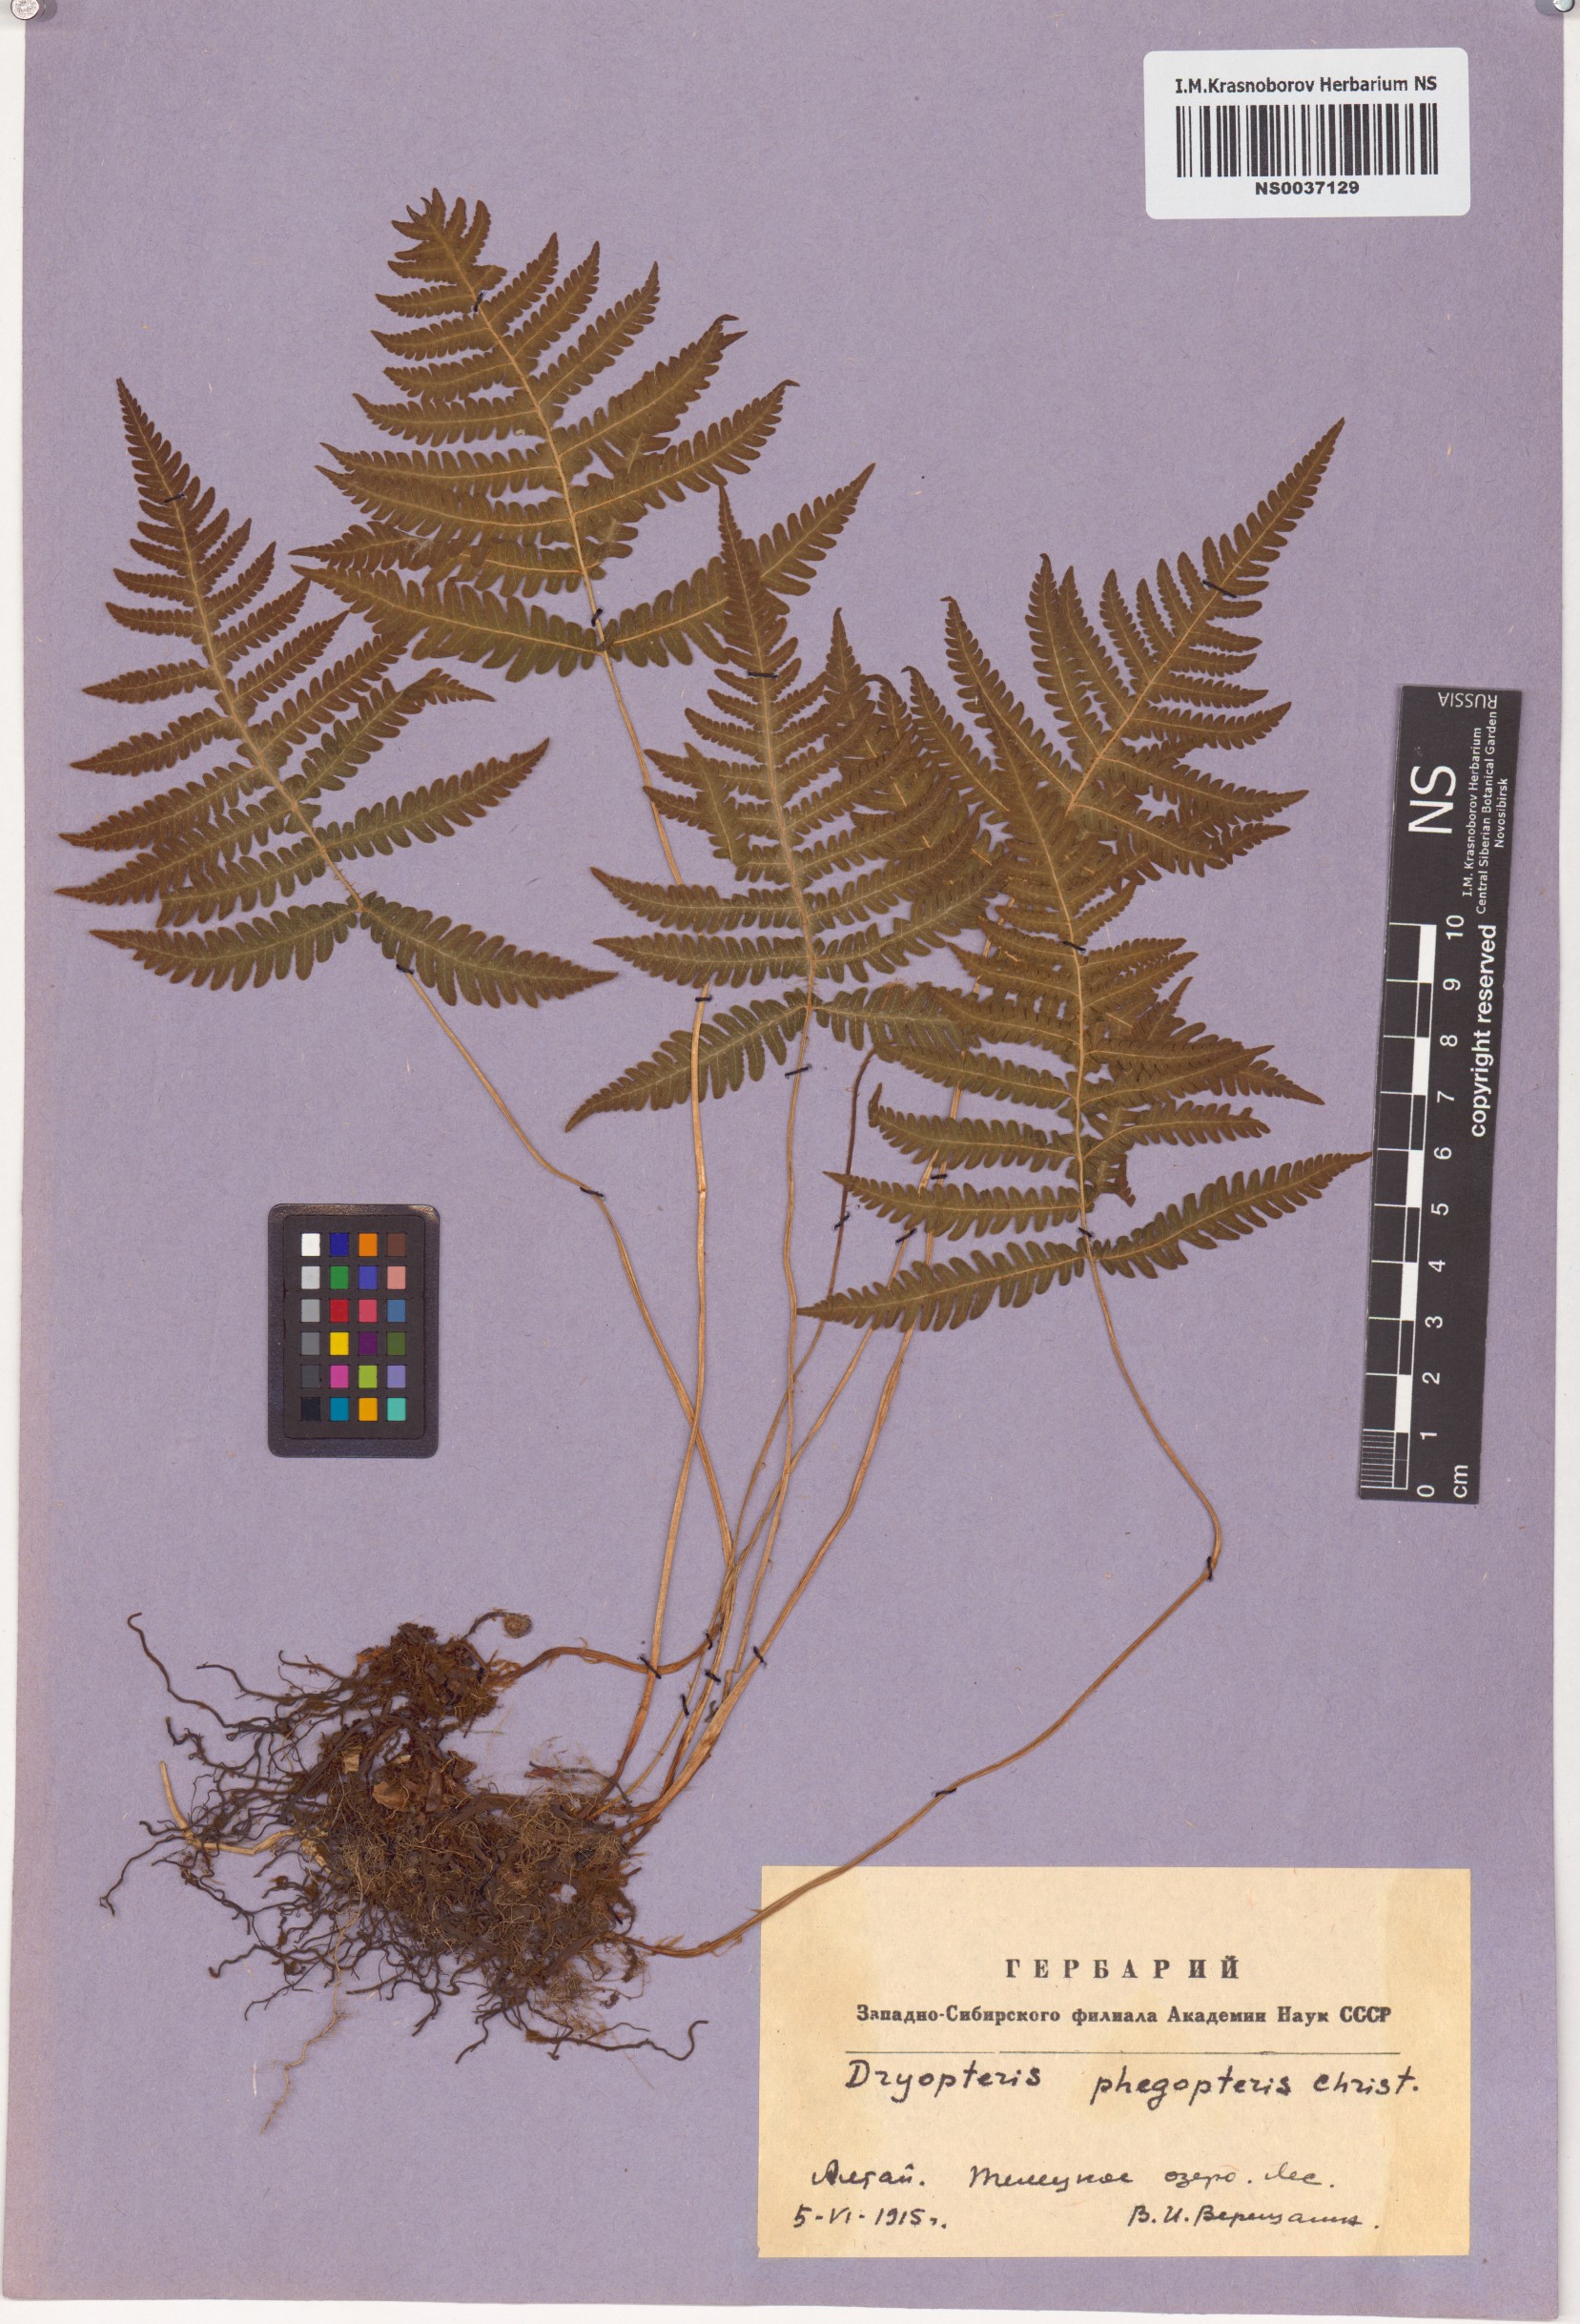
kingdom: Plantae
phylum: Tracheophyta
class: Polypodiopsida
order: Polypodiales
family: Thelypteridaceae
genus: Phegopteris
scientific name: Phegopteris connectilis
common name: Beech fern
